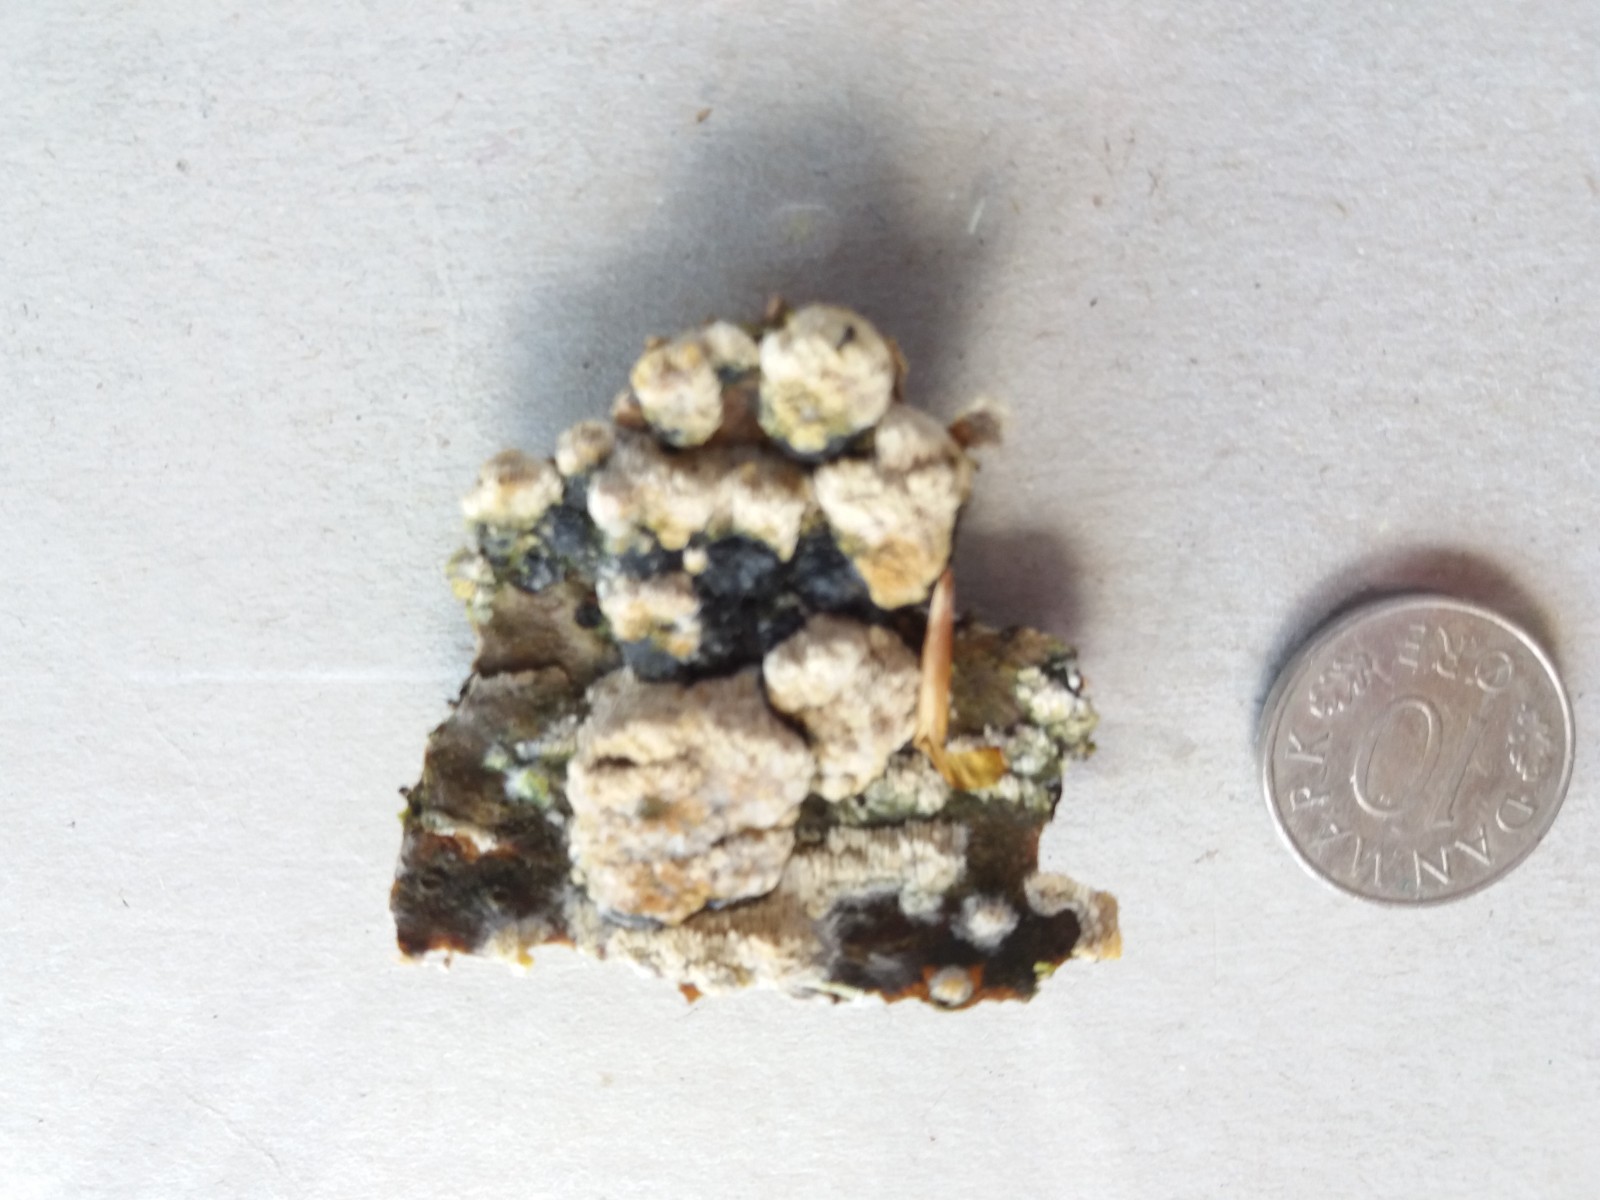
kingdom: Fungi
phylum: Basidiomycota
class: Agaricomycetes
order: Hymenochaetales
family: Schizoporaceae
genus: Schizopora
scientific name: Schizopora paradoxa
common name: hvid tandsvamp
